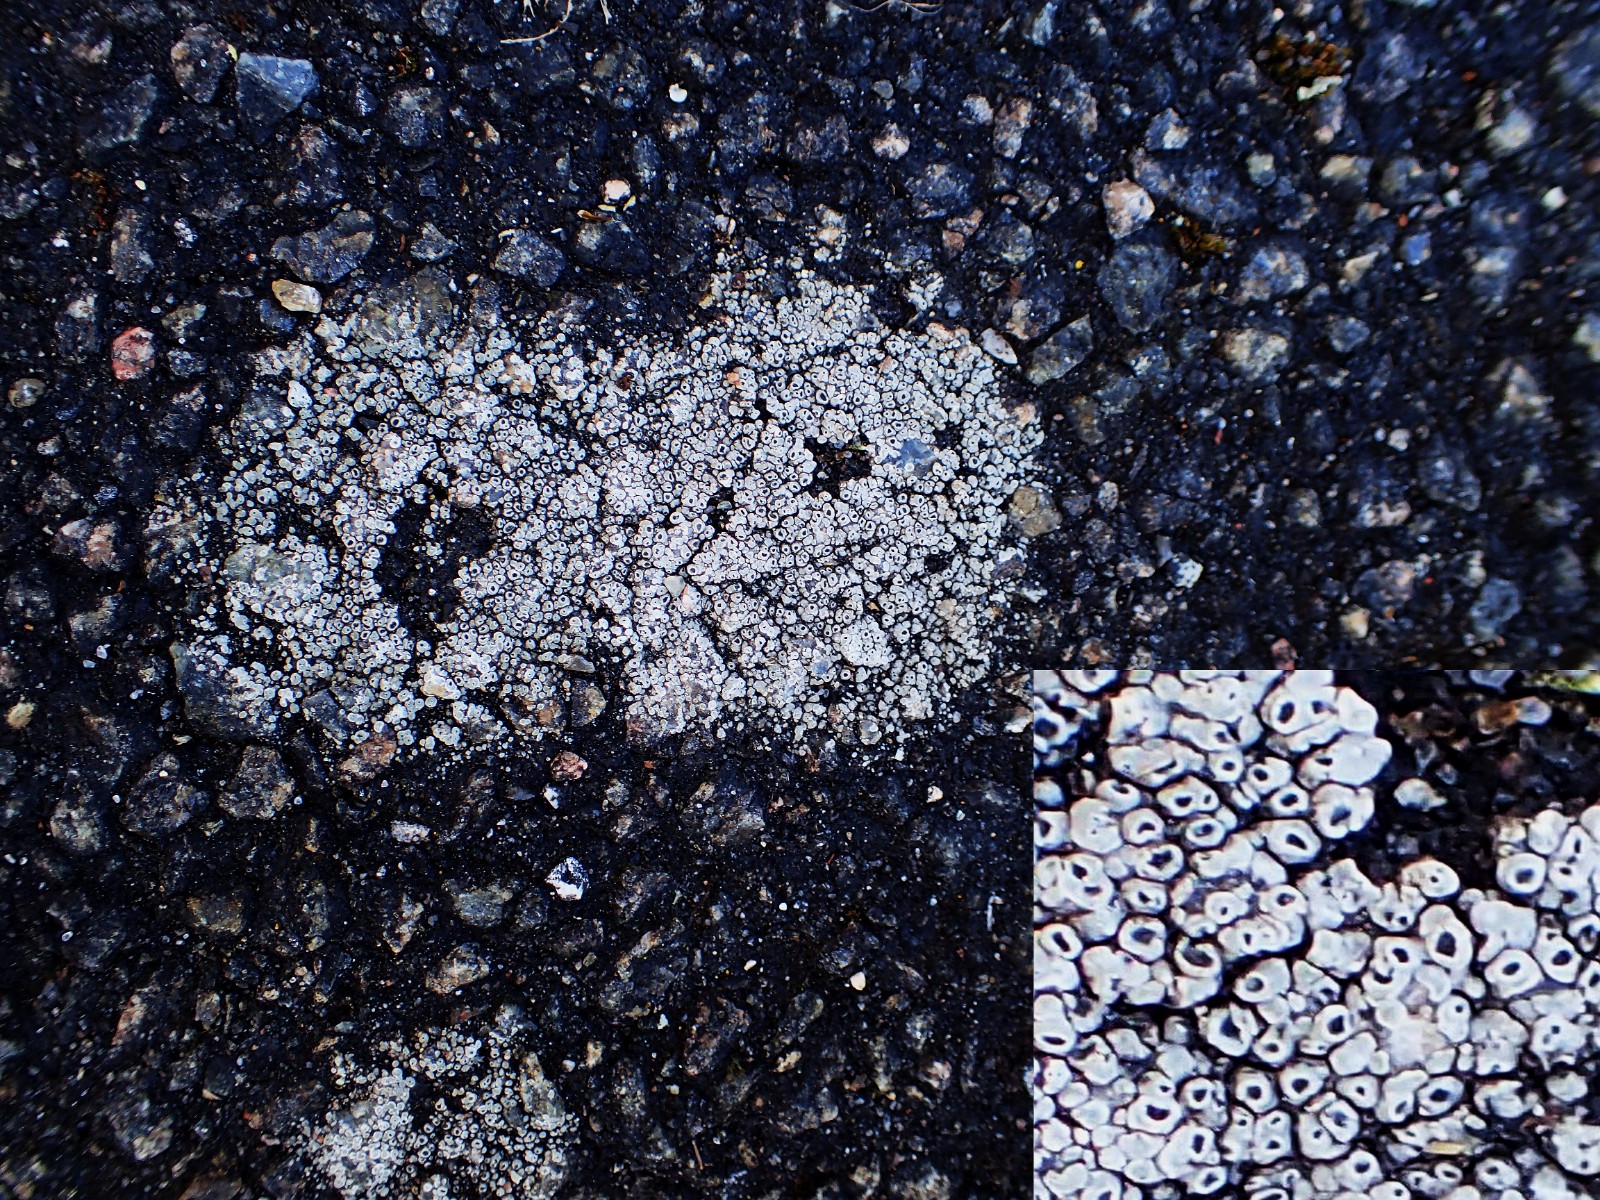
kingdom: Fungi
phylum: Ascomycota
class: Lecanoromycetes
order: Pertusariales
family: Megasporaceae
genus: Circinaria
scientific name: Circinaria contorta
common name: indviklet hulskivelav
